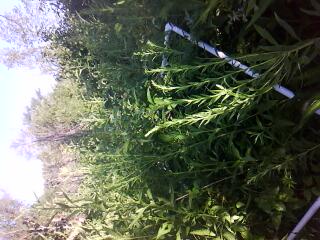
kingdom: Plantae
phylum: Tracheophyta
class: Magnoliopsida
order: Rosales
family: Rosaceae
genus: Rubus
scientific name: Rubus idaeus
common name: Raspberry
